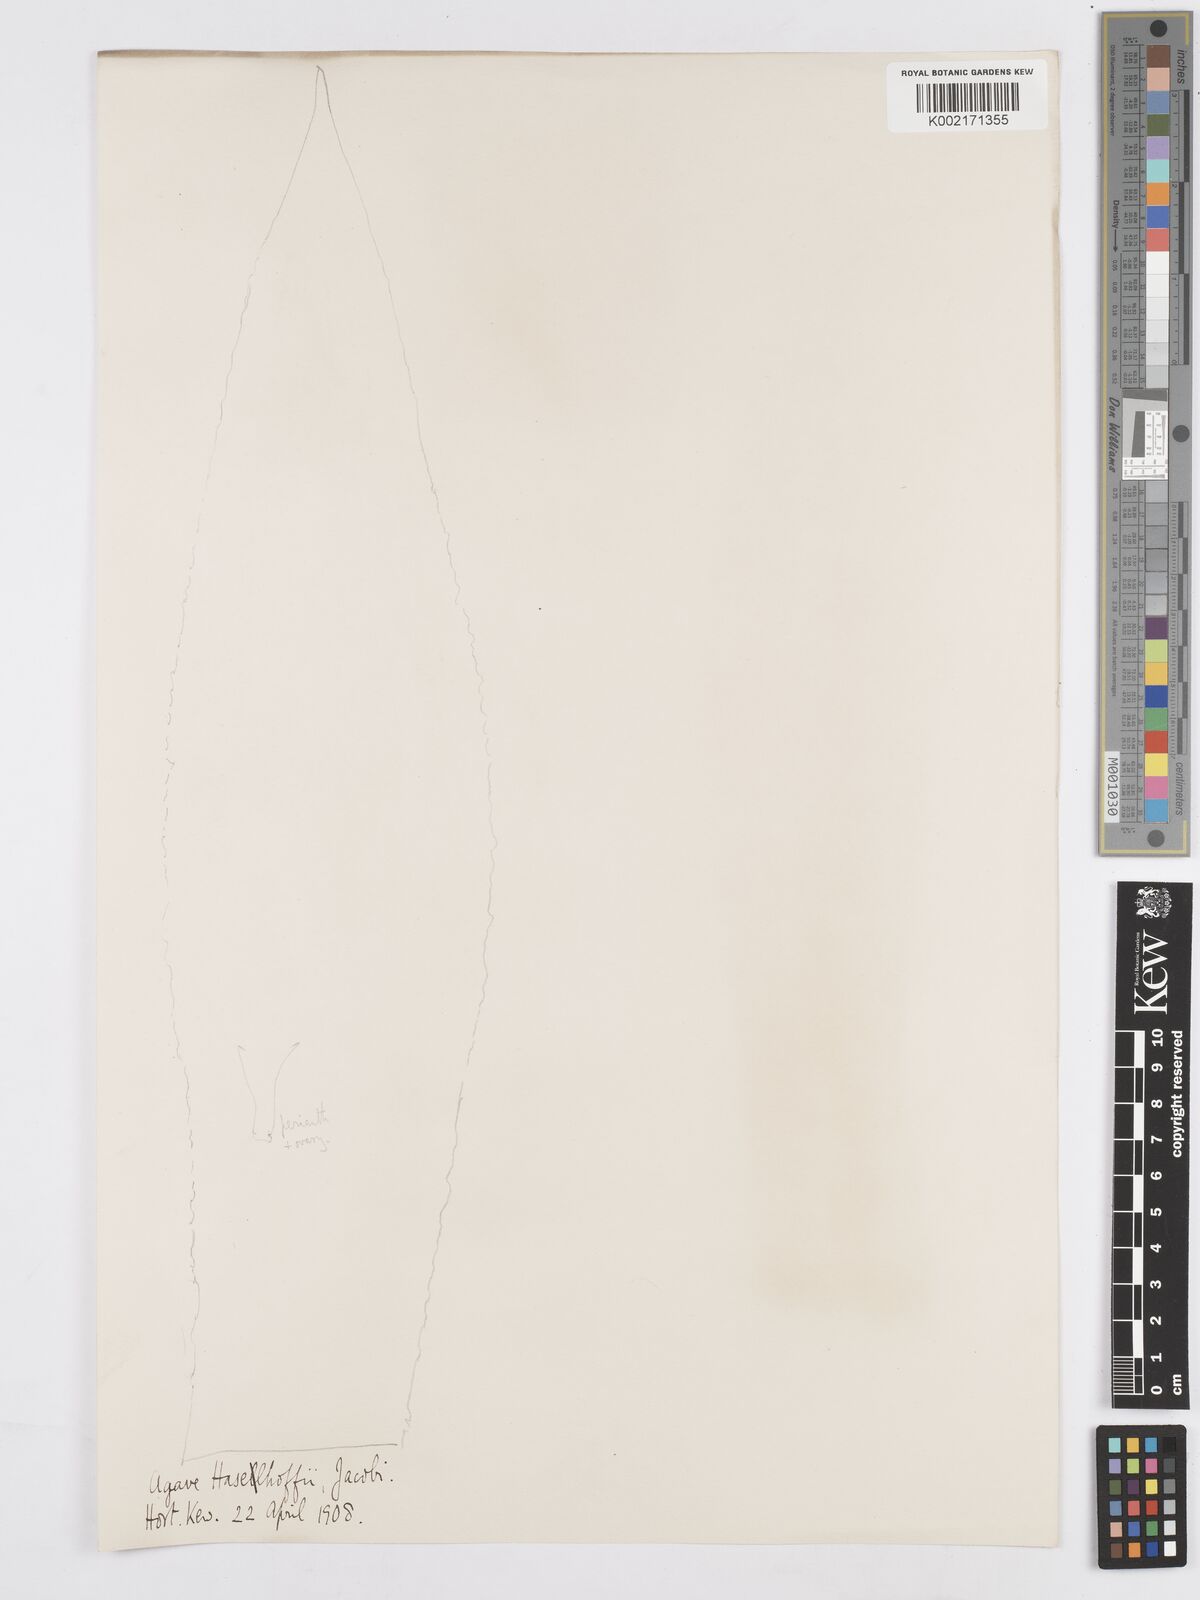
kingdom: Plantae
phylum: Tracheophyta
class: Liliopsida
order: Asparagales
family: Asparagaceae
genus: Agave
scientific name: Agave mitis
